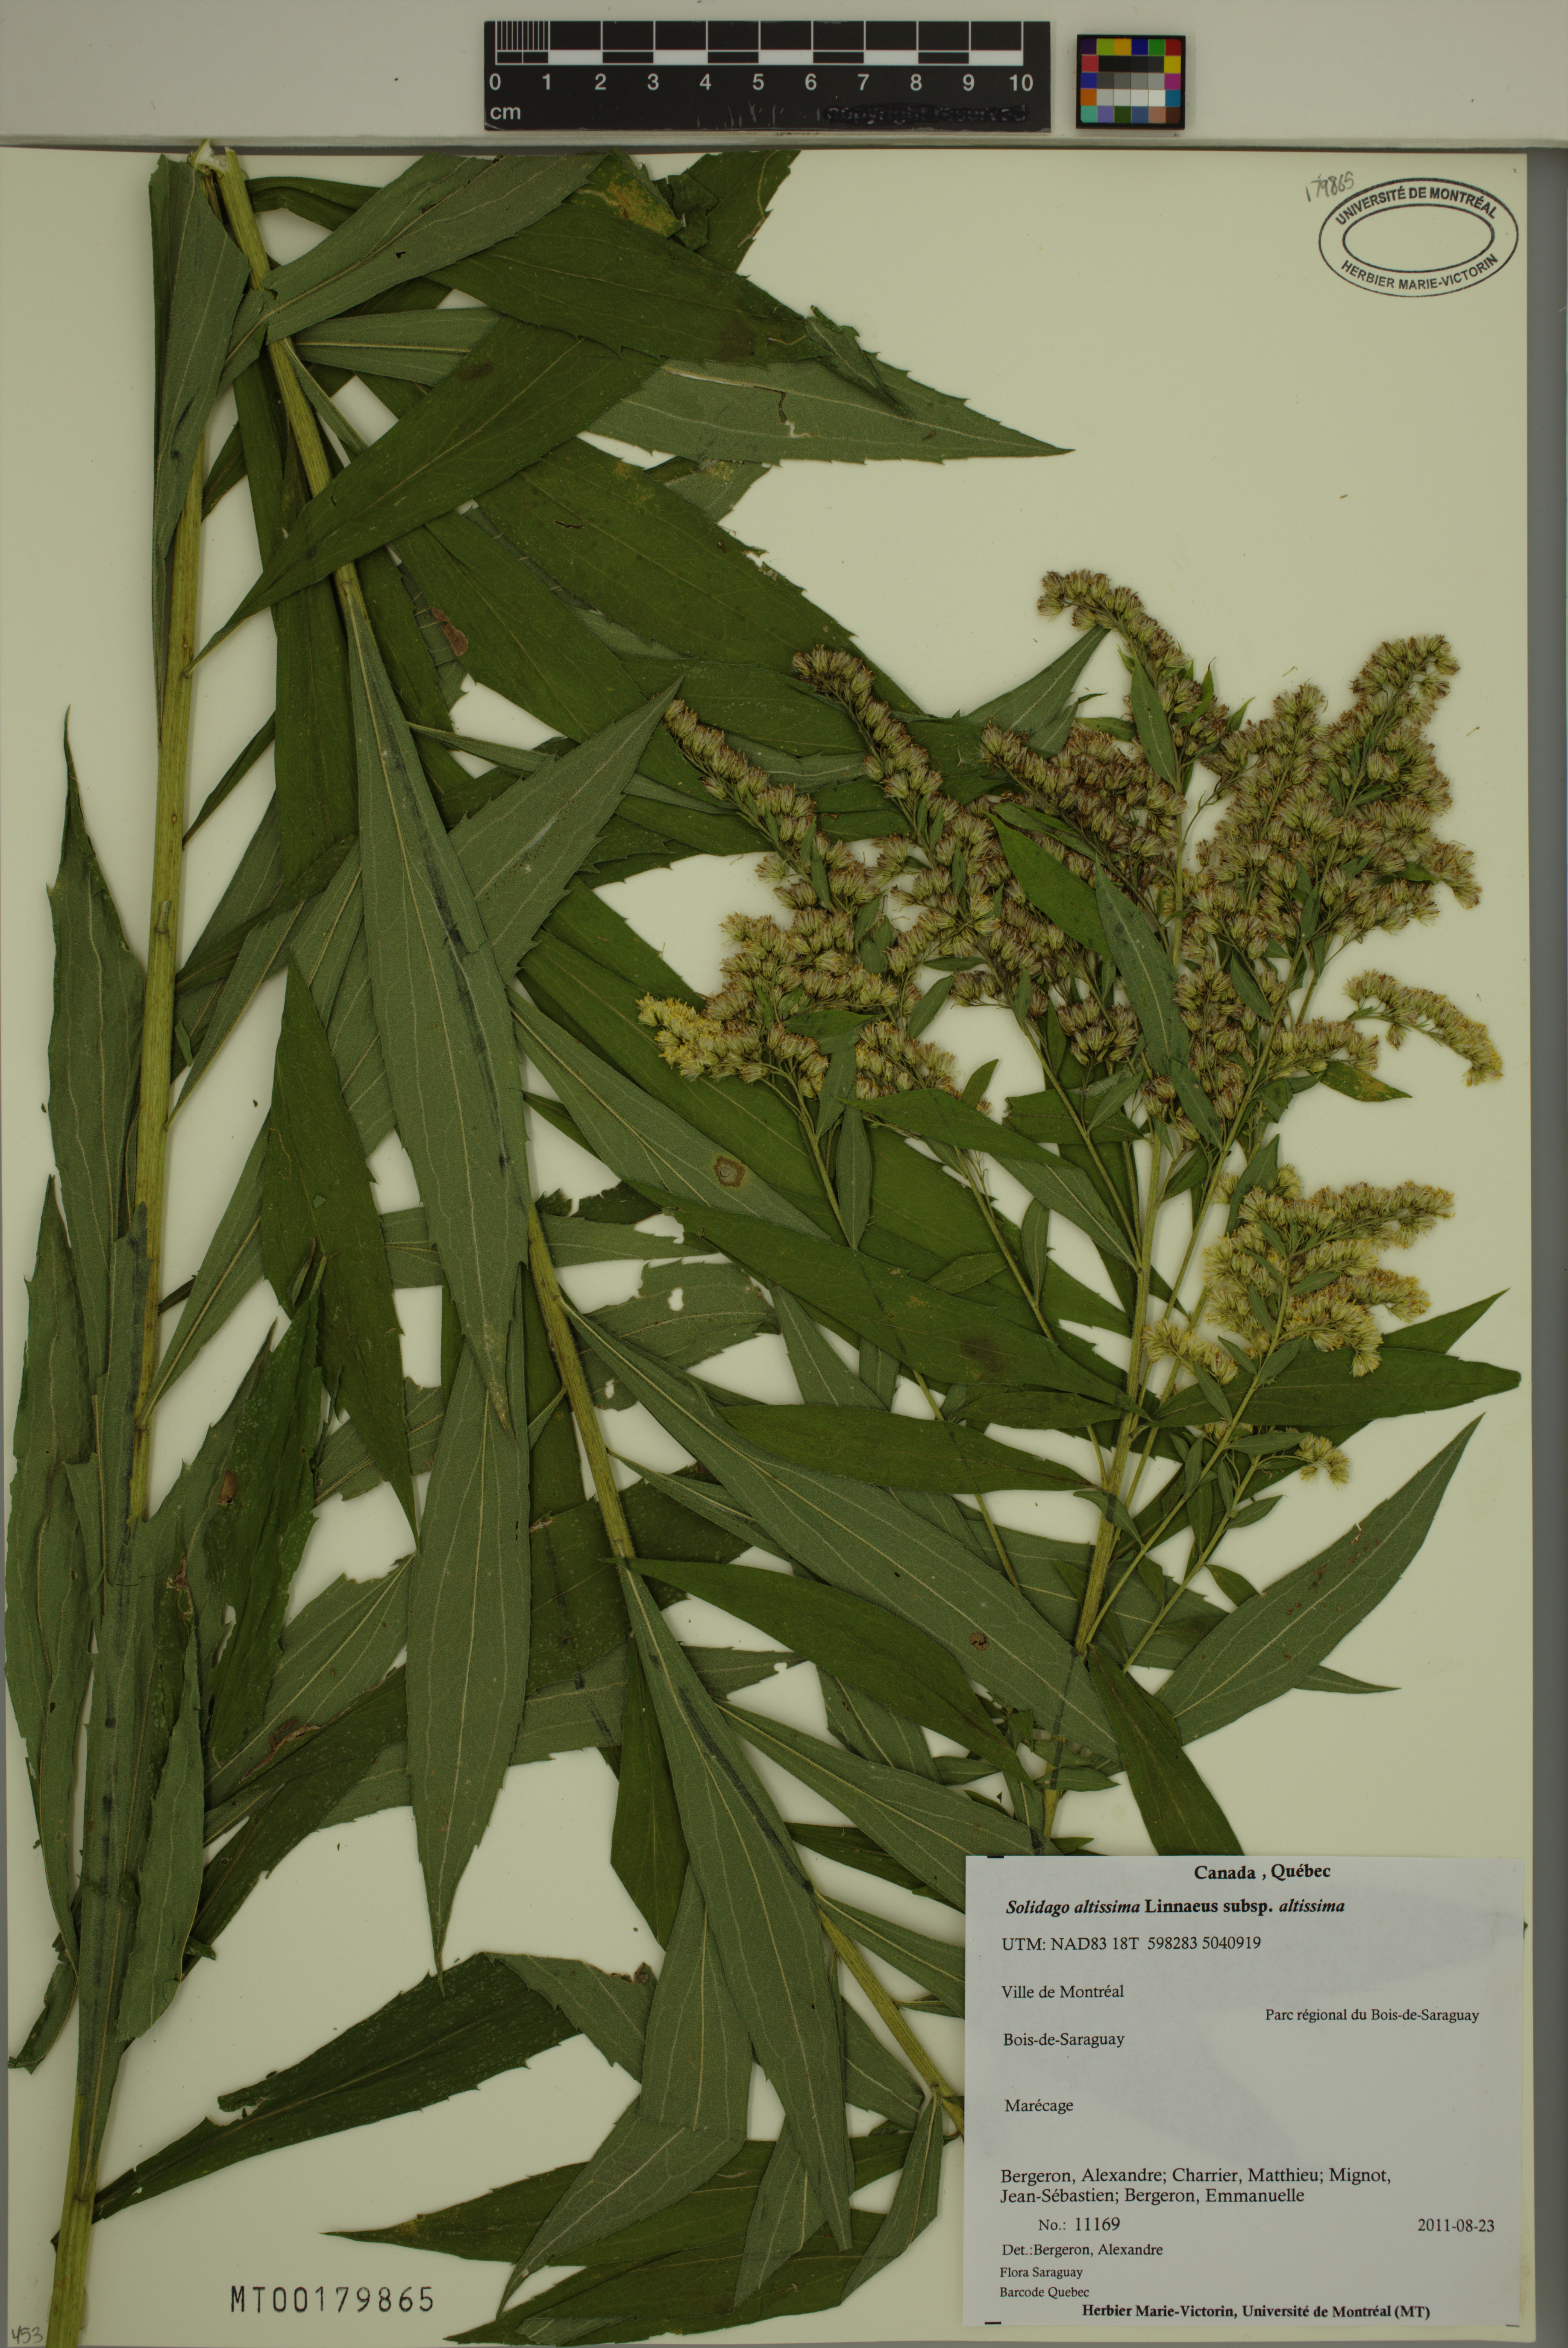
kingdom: Plantae
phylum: Tracheophyta
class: Magnoliopsida
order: Asterales
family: Asteraceae
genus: Solidago
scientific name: Solidago altissima
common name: Late goldenrod
